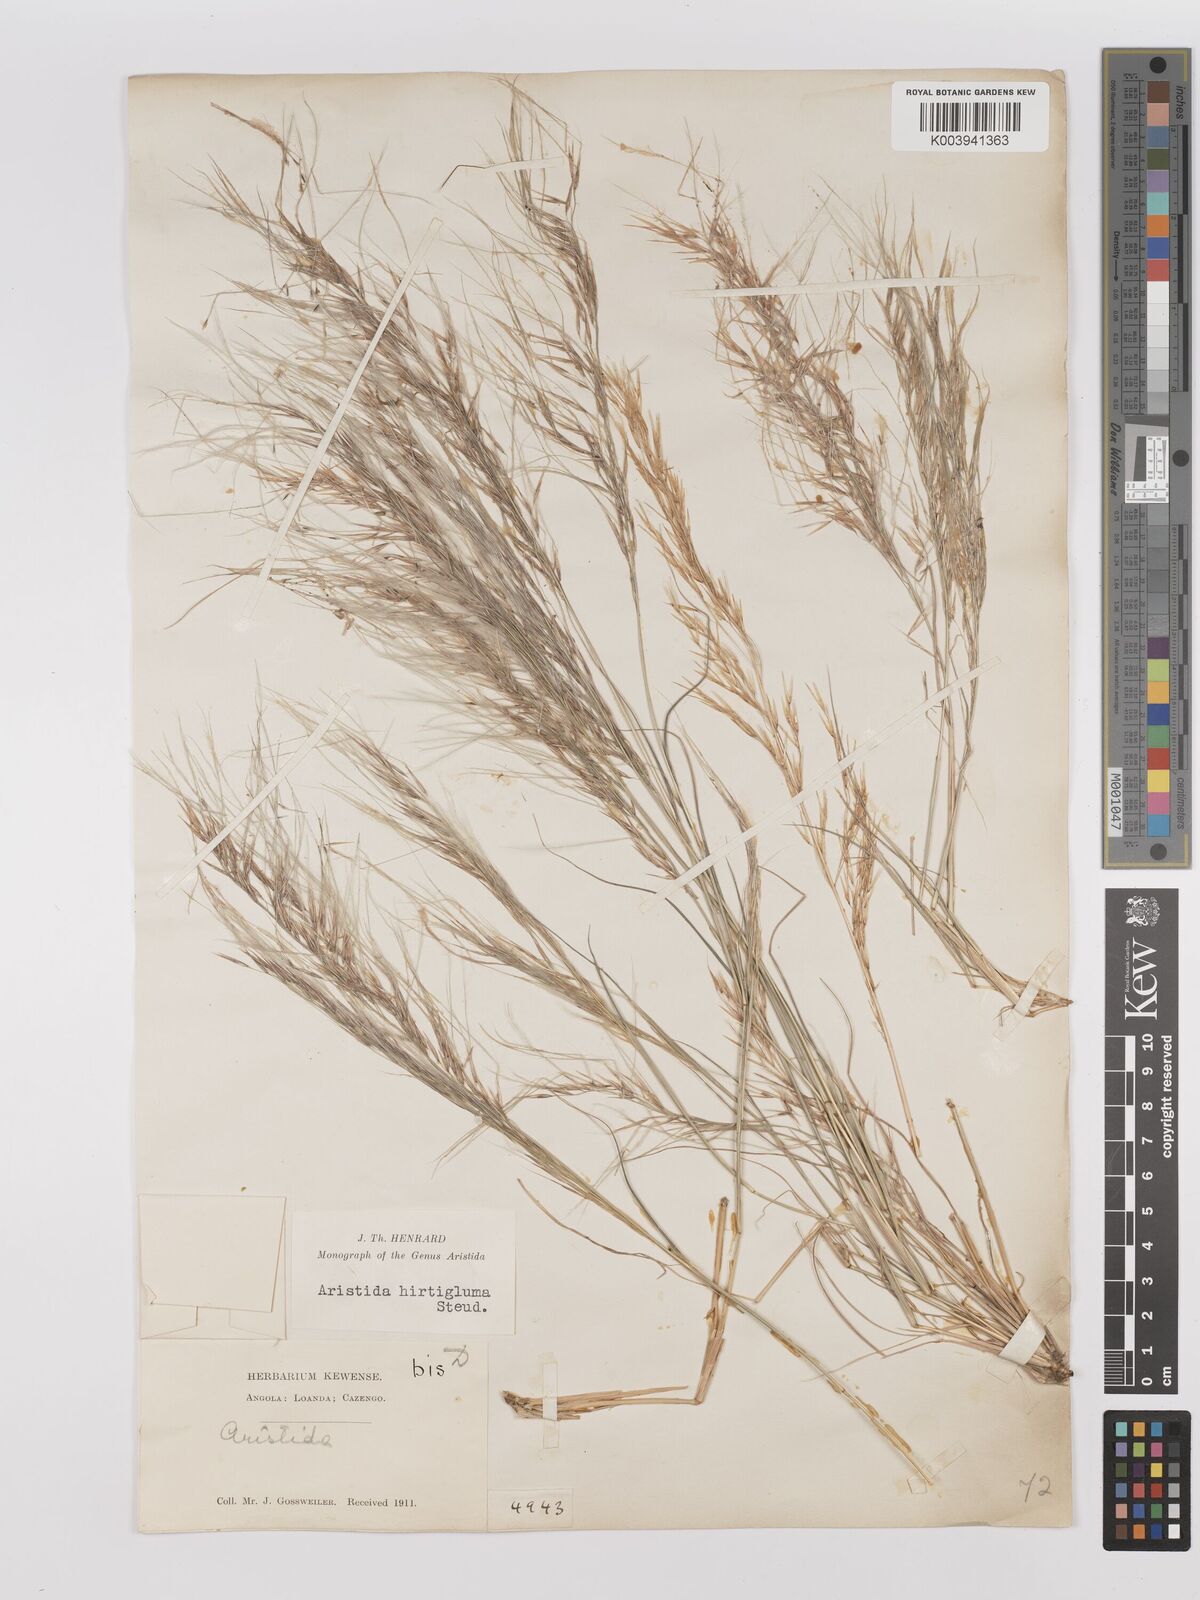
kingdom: Plantae
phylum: Tracheophyta
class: Liliopsida
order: Poales
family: Poaceae
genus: Stipagrostis
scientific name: Stipagrostis hirtigluma
